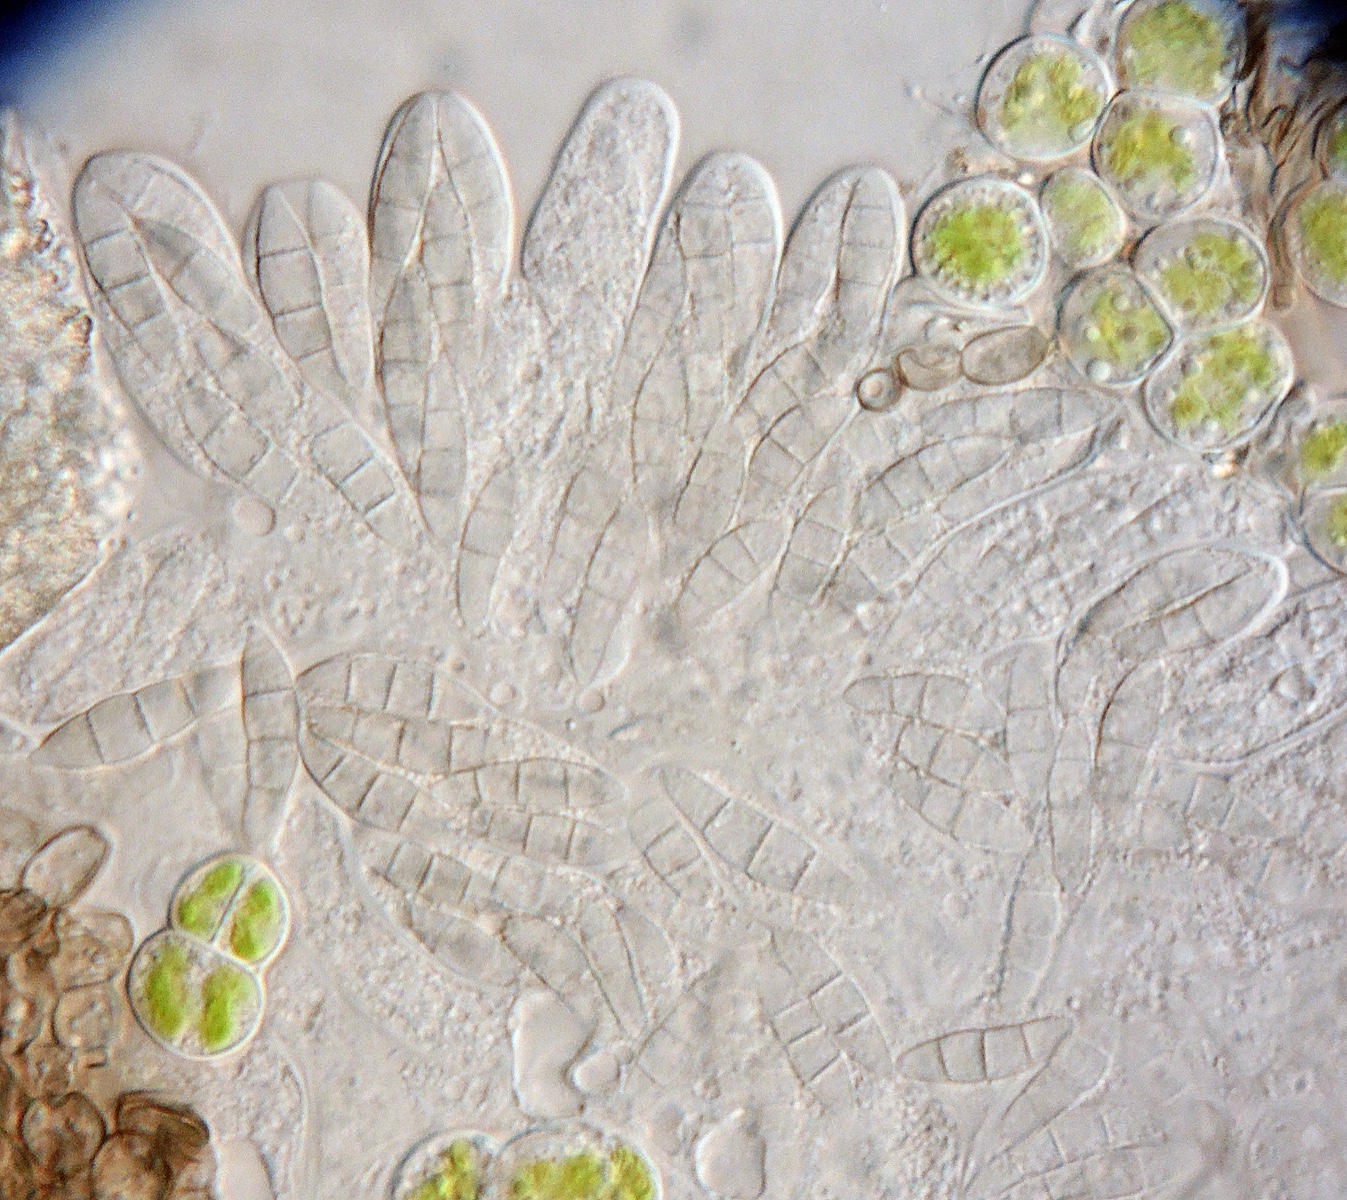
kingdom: Fungi
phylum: Ascomycota
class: Dothideomycetes
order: Mycosphaerellales
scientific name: Mycosphaerellales
